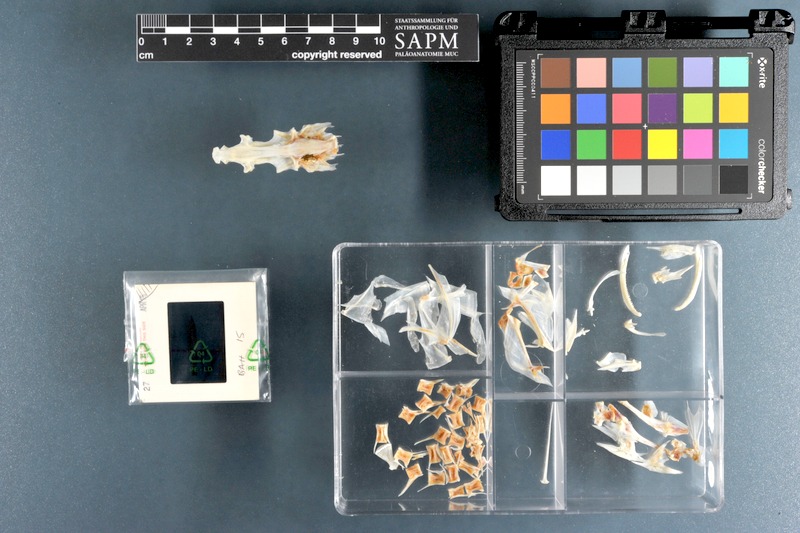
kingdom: Animalia
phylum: Chordata
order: Scorpaeniformes
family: Platycephalidae
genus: Platycephalus
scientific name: Platycephalus indicus
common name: Bartail flathead
